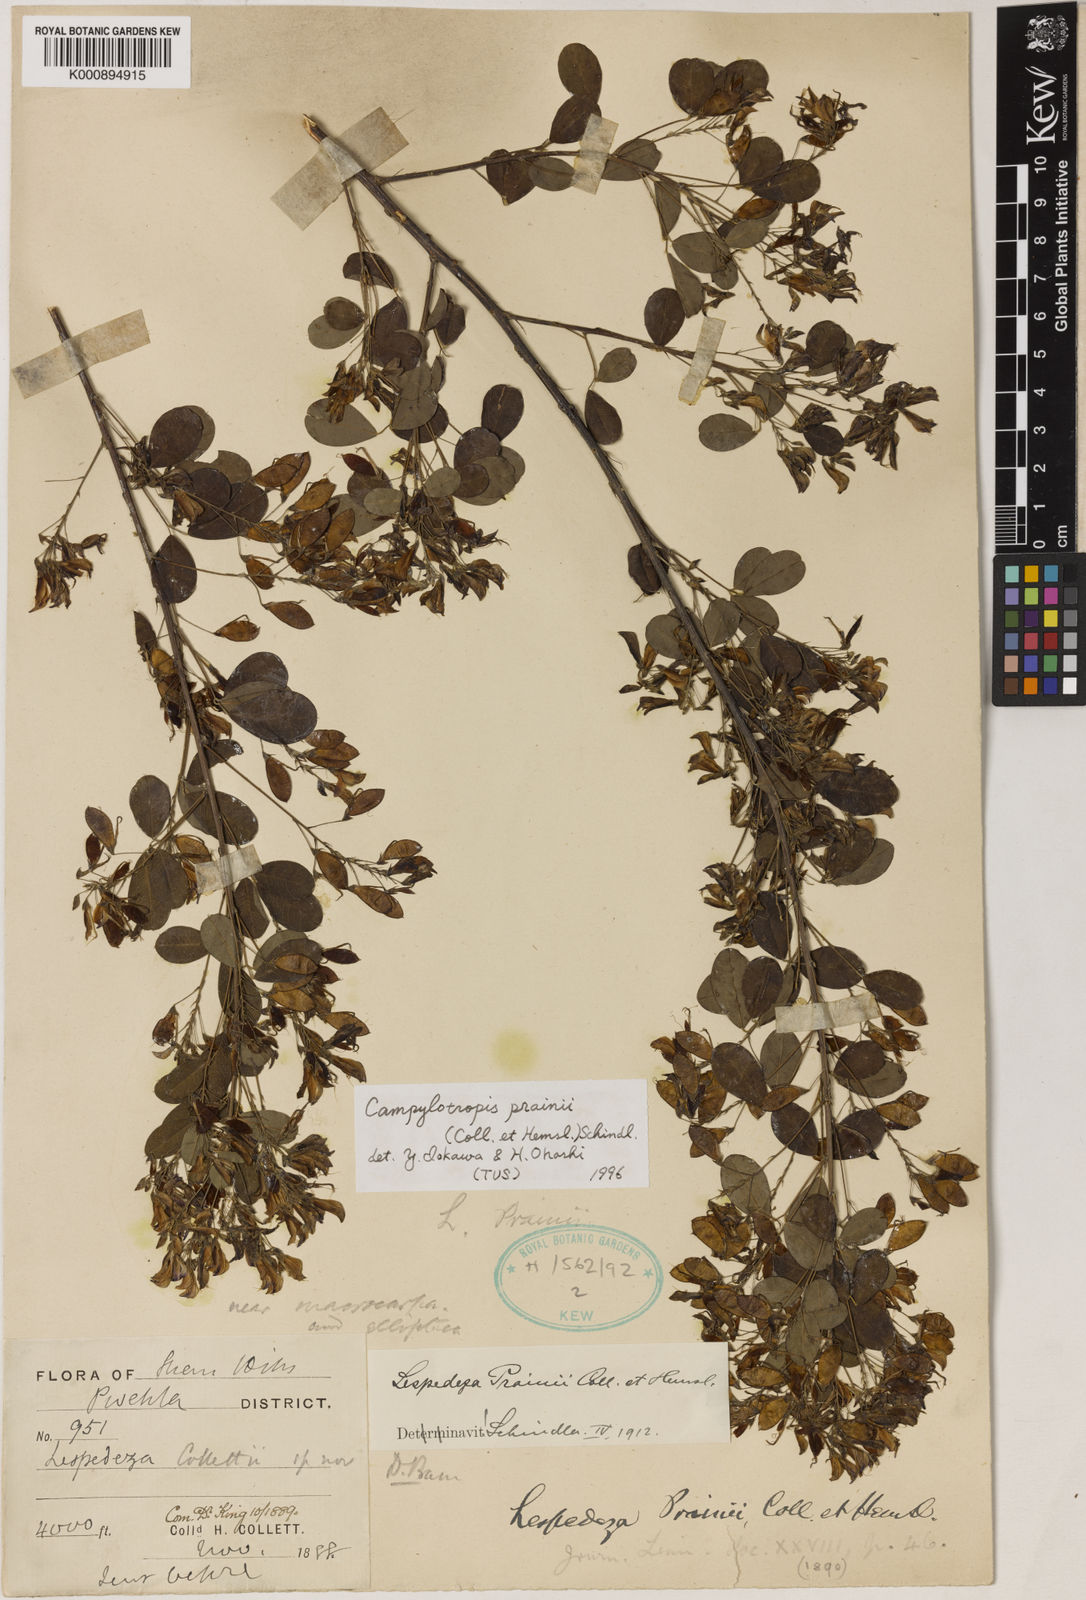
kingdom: Plantae
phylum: Tracheophyta
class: Magnoliopsida
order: Fabales
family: Fabaceae
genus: Campylotropis
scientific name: Campylotropis capillipes
